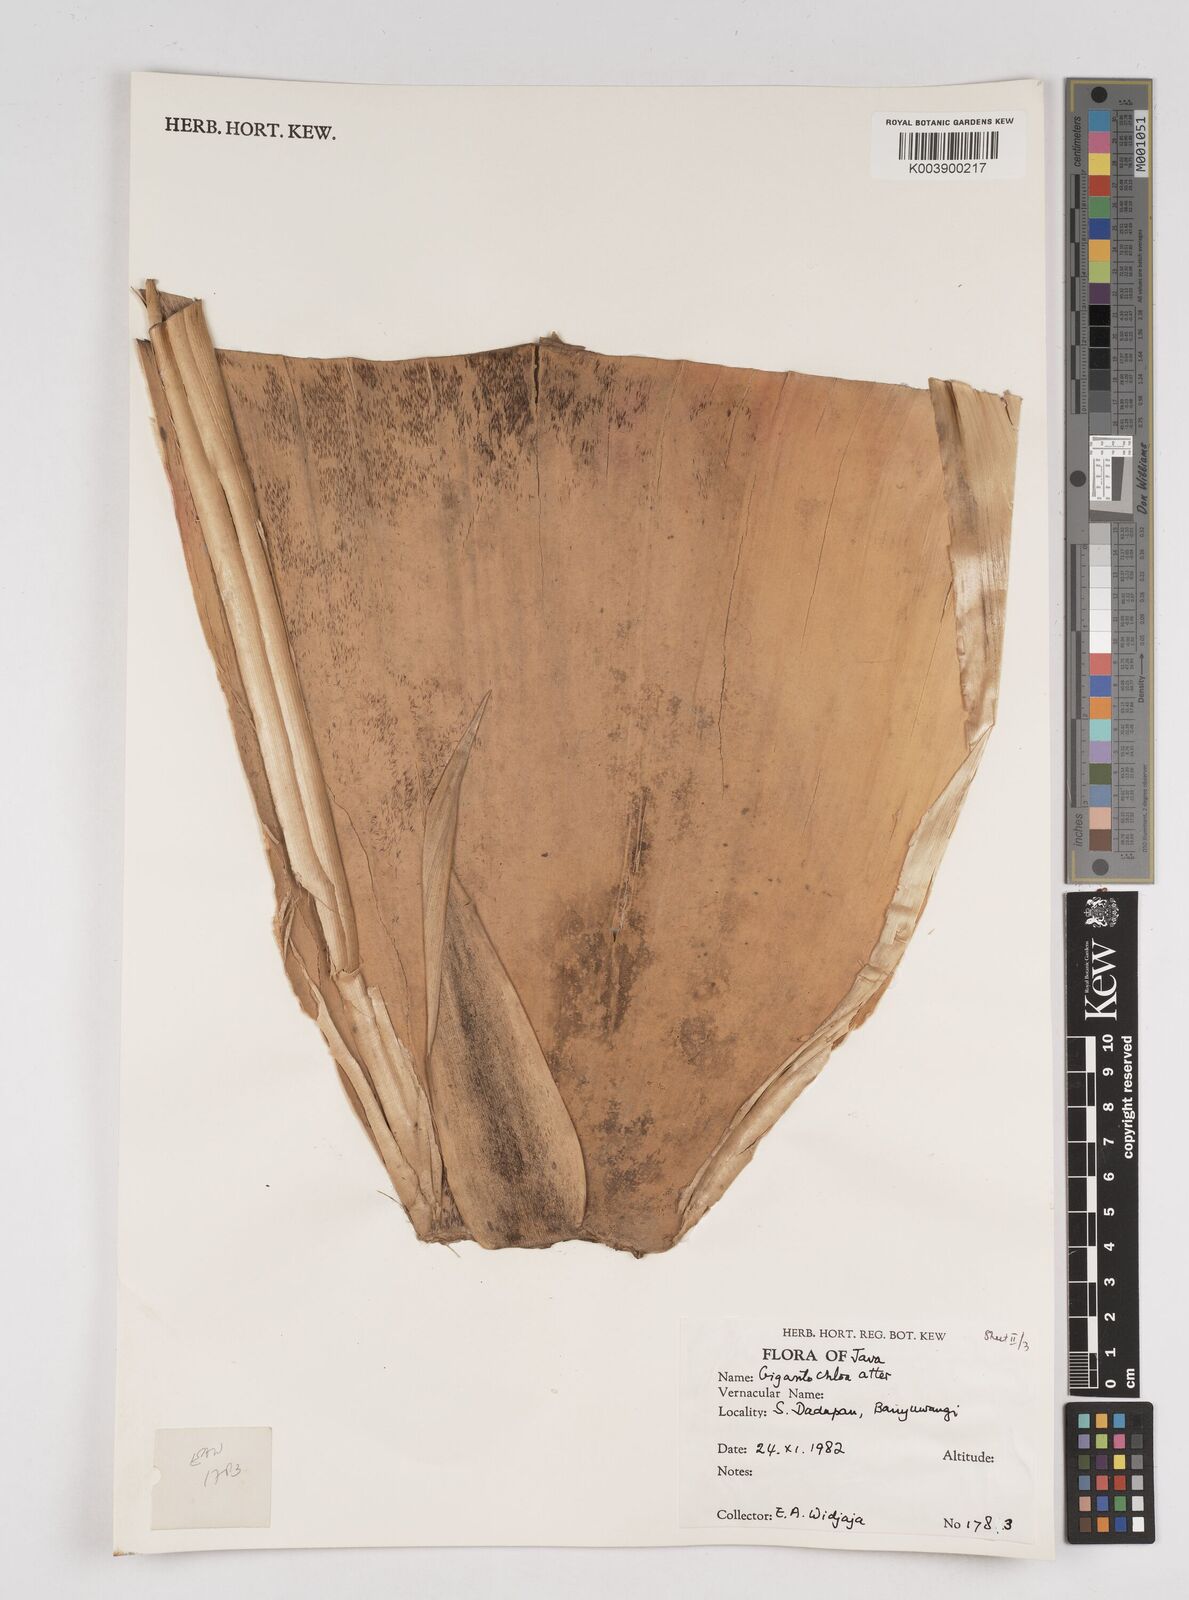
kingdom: Plantae
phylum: Tracheophyta
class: Liliopsida
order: Poales
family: Poaceae
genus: Gigantochloa
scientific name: Gigantochloa atter
